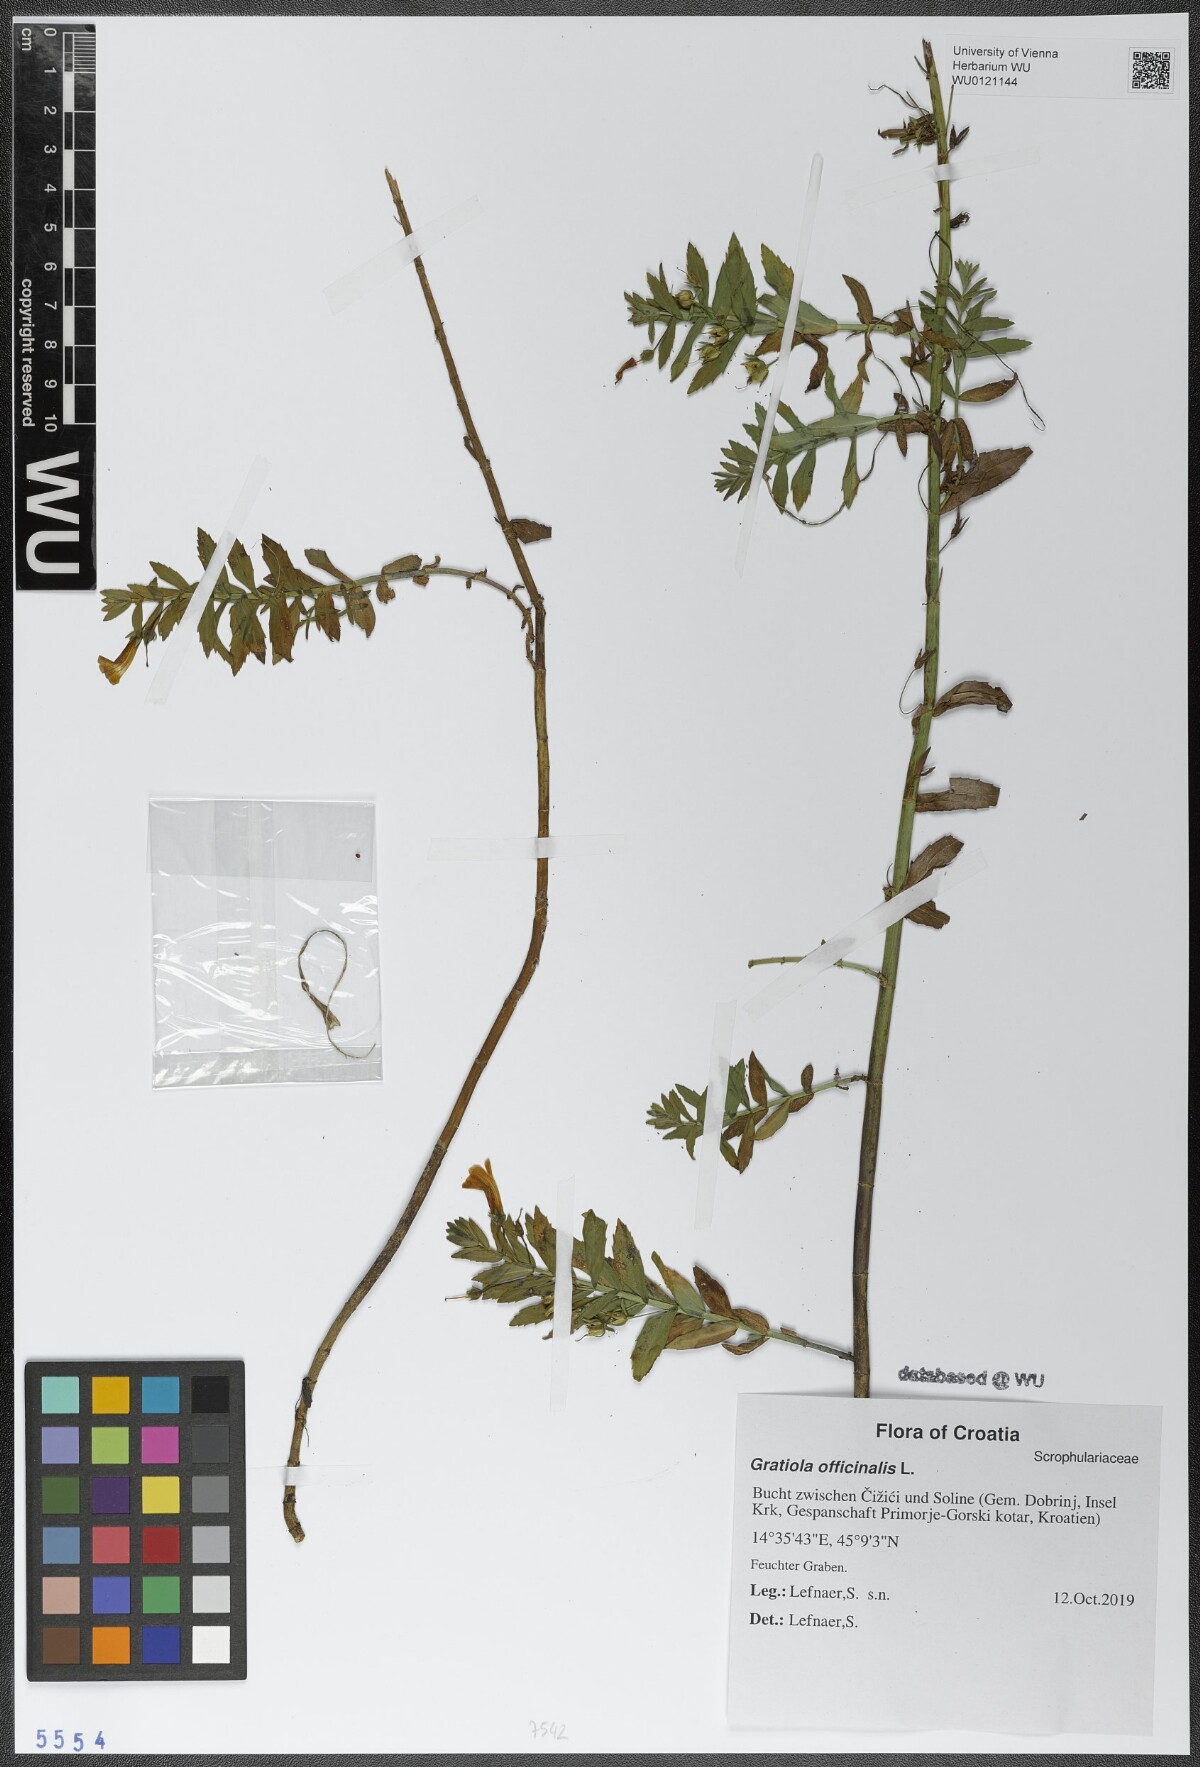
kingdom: Plantae
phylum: Tracheophyta
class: Magnoliopsida
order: Lamiales
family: Plantaginaceae
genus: Gratiola
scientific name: Gratiola officinalis
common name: Gratiola
